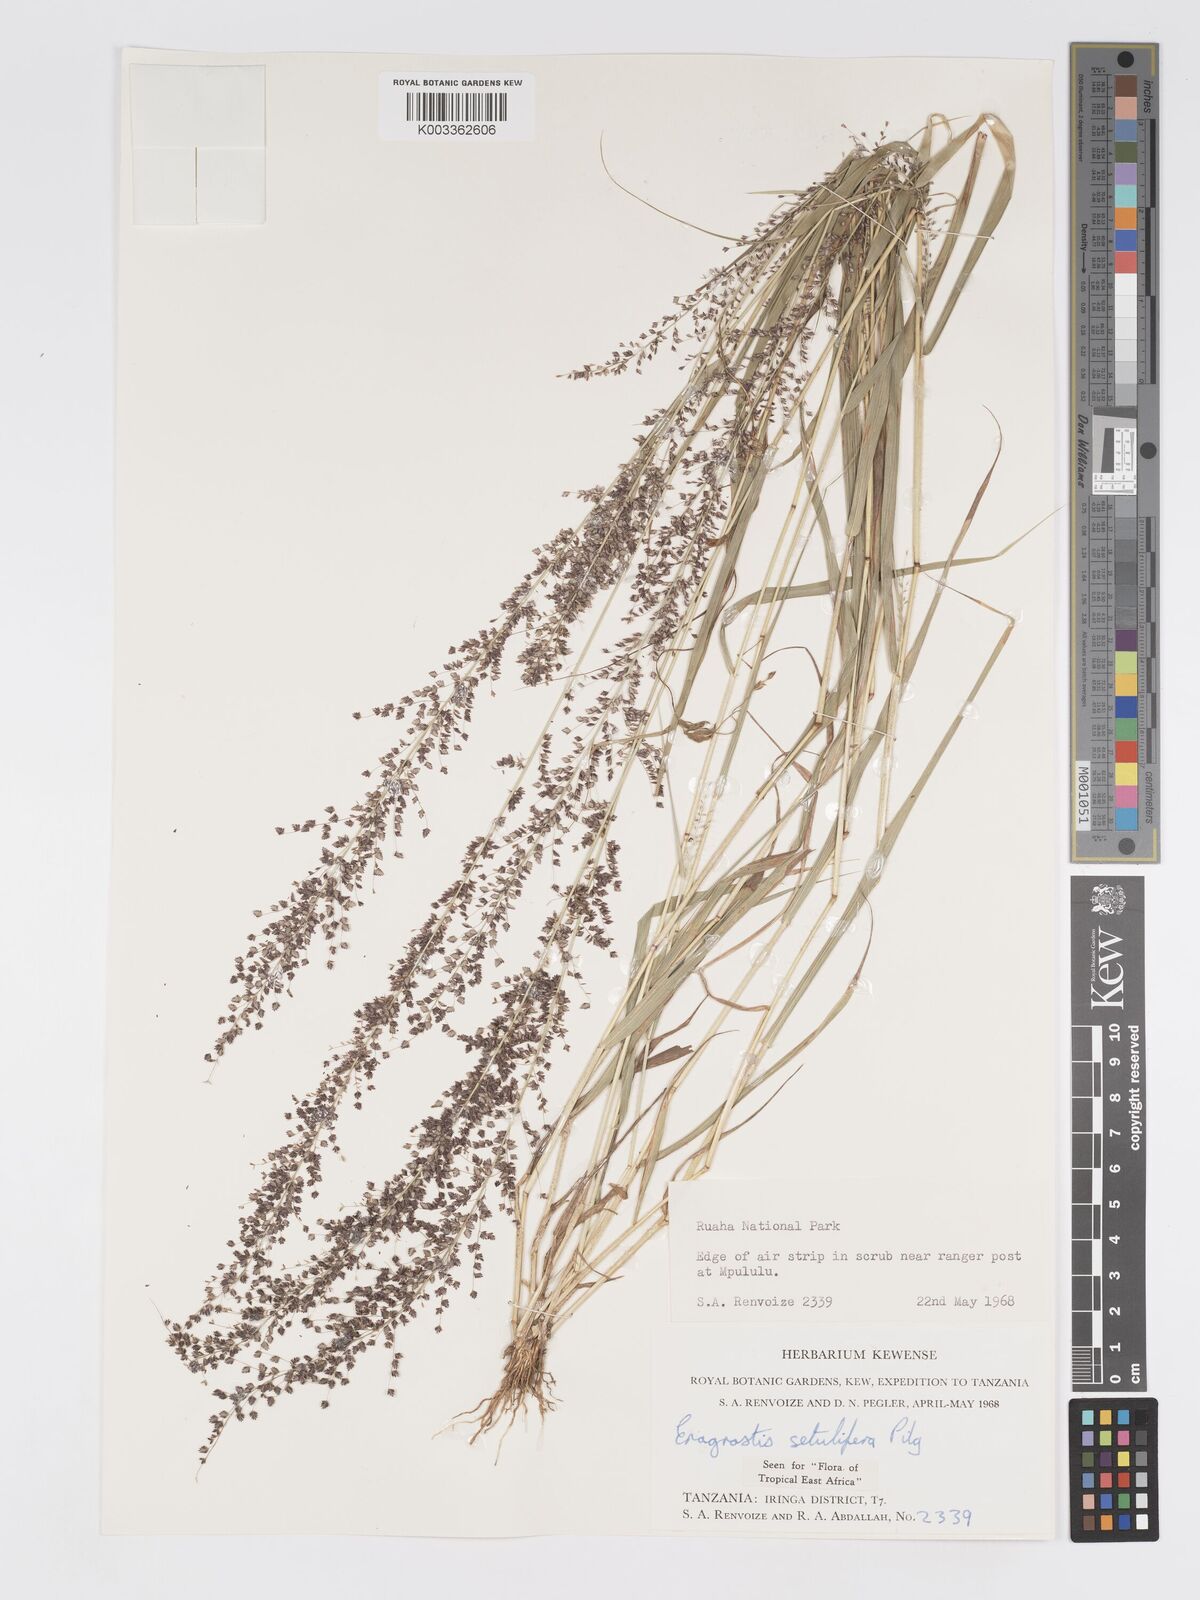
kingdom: Plantae
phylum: Tracheophyta
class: Liliopsida
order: Poales
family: Poaceae
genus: Eragrostis
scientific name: Eragrostis setulifera
